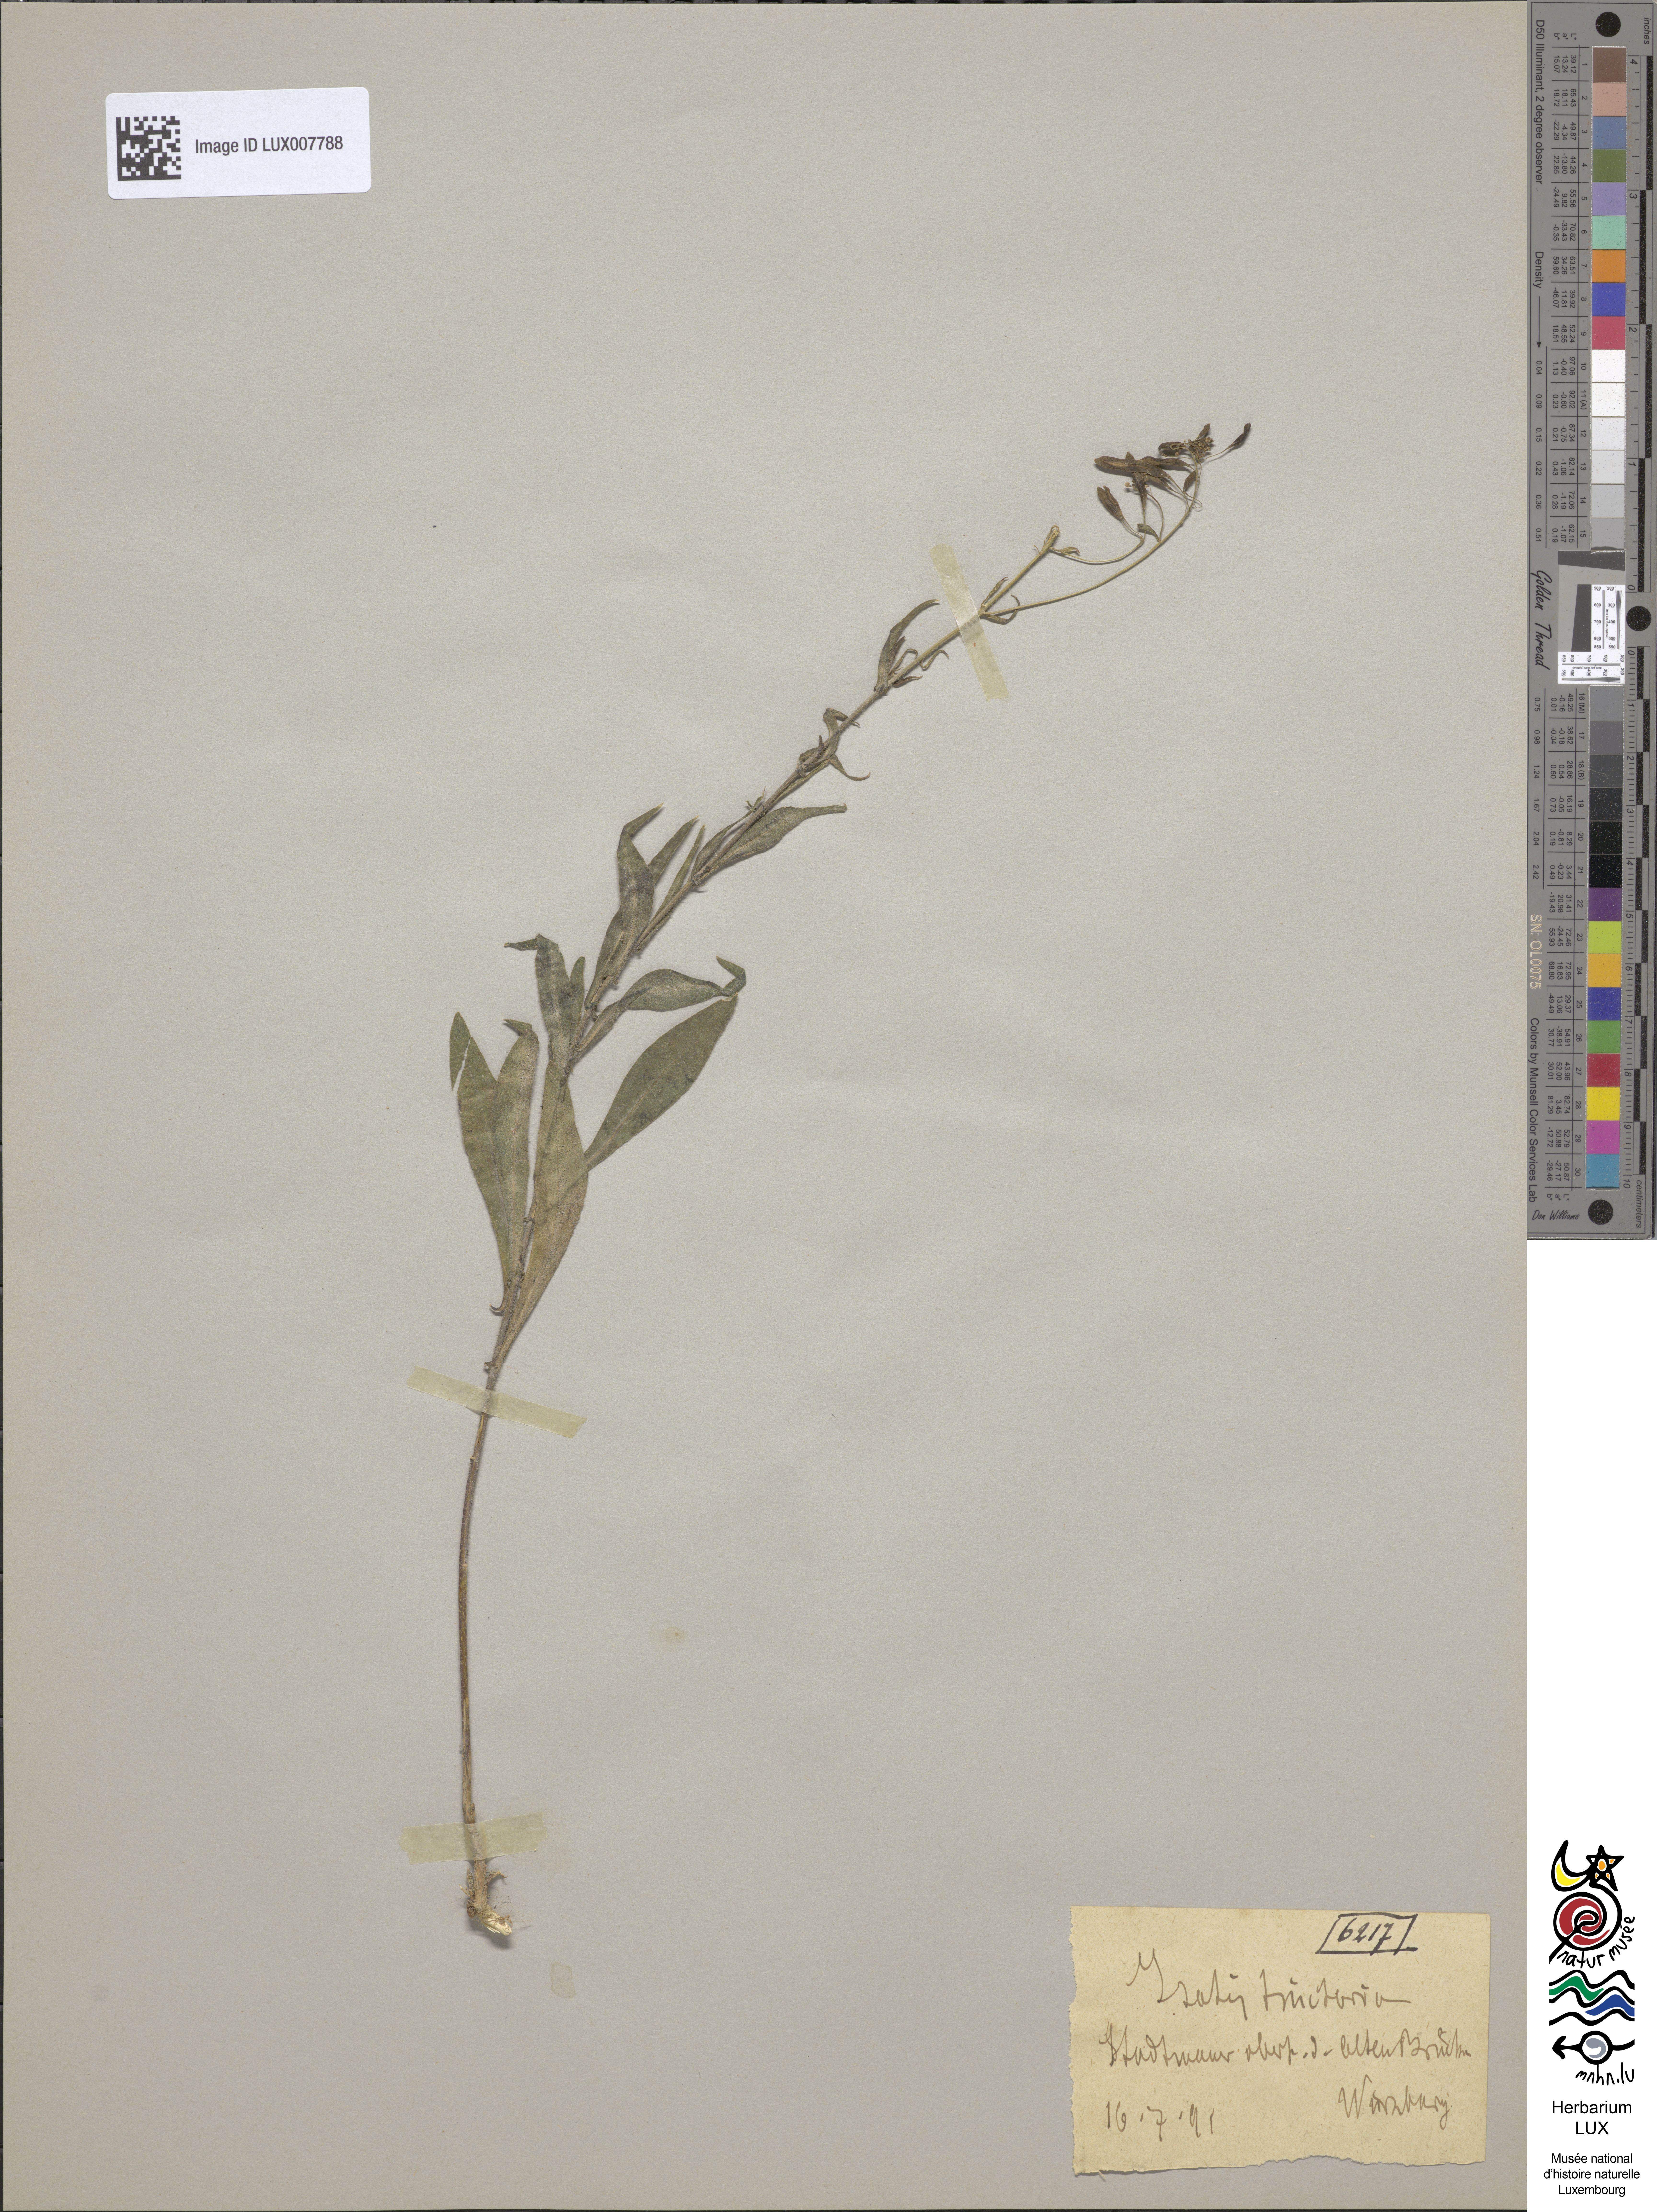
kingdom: Plantae
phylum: Tracheophyta
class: Magnoliopsida
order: Brassicales
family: Brassicaceae
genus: Isatis
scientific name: Isatis tinctoria
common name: Woad
